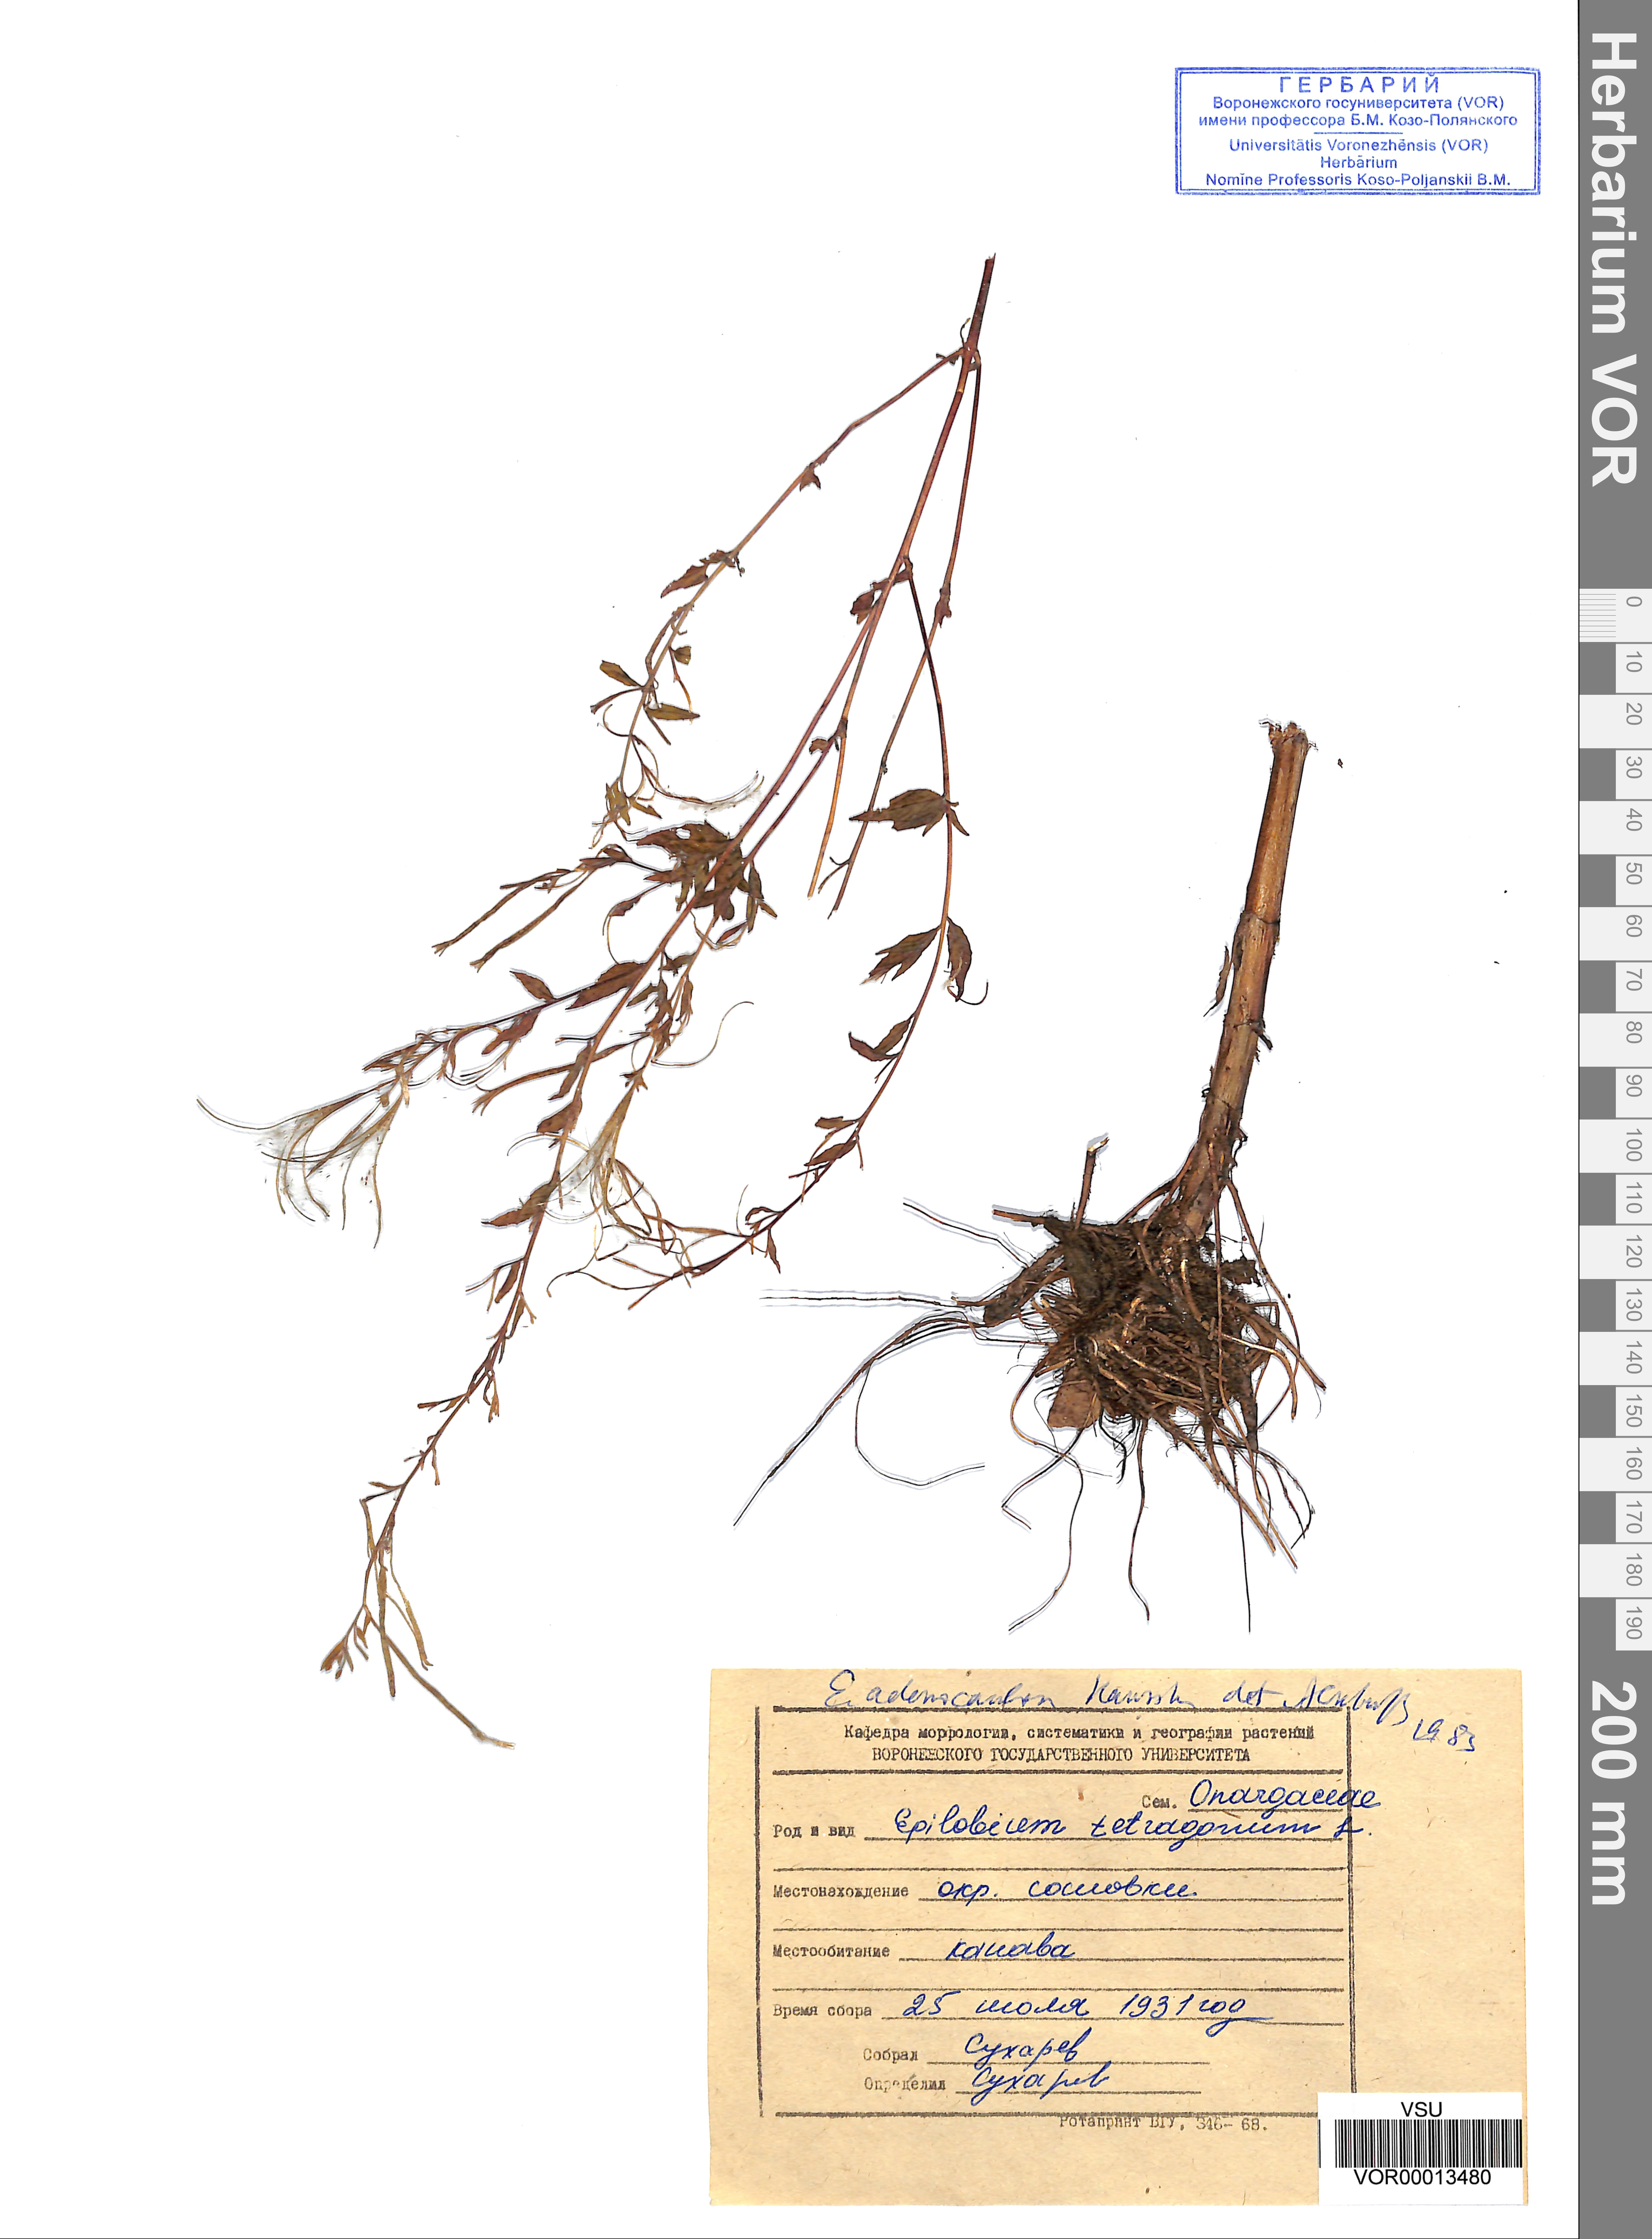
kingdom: Plantae
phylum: Tracheophyta
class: Magnoliopsida
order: Myrtales
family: Onagraceae
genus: Epilobium
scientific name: Epilobium ciliatum
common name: American willowherb
